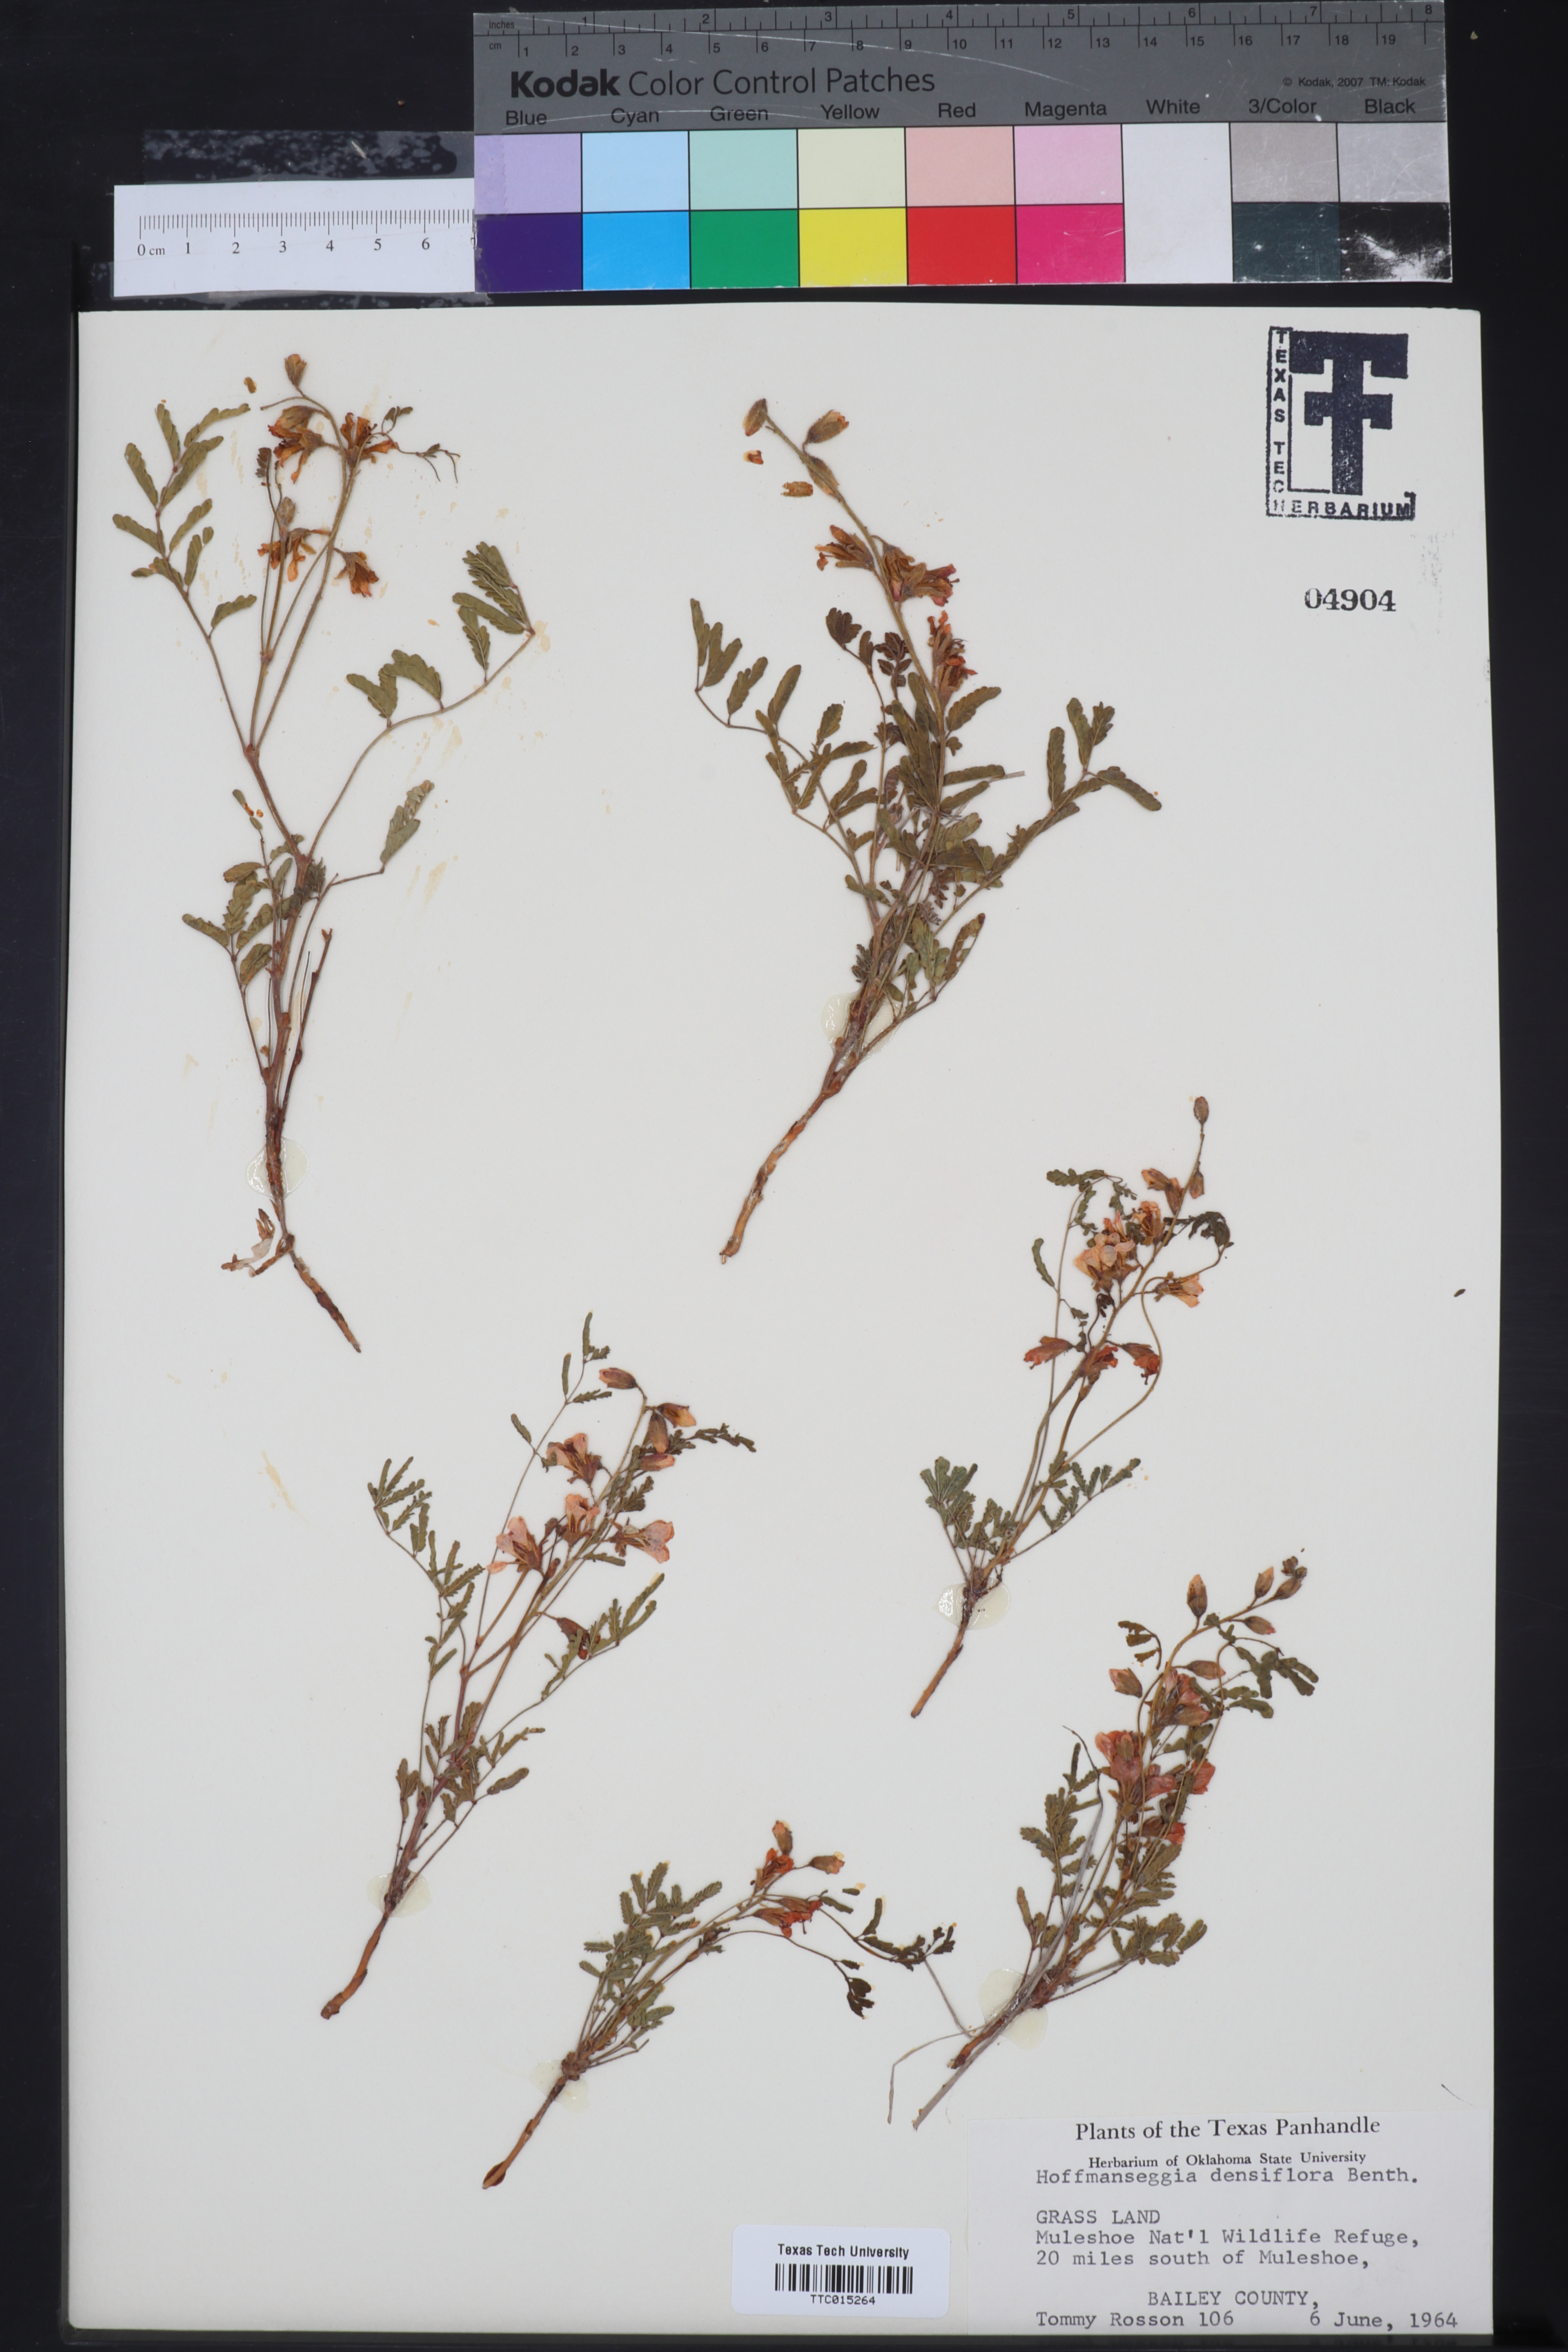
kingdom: Plantae
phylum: Tracheophyta
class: Magnoliopsida
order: Fabales
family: Fabaceae
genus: Hoffmannseggia
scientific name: Hoffmannseggia glauca
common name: Pignut
